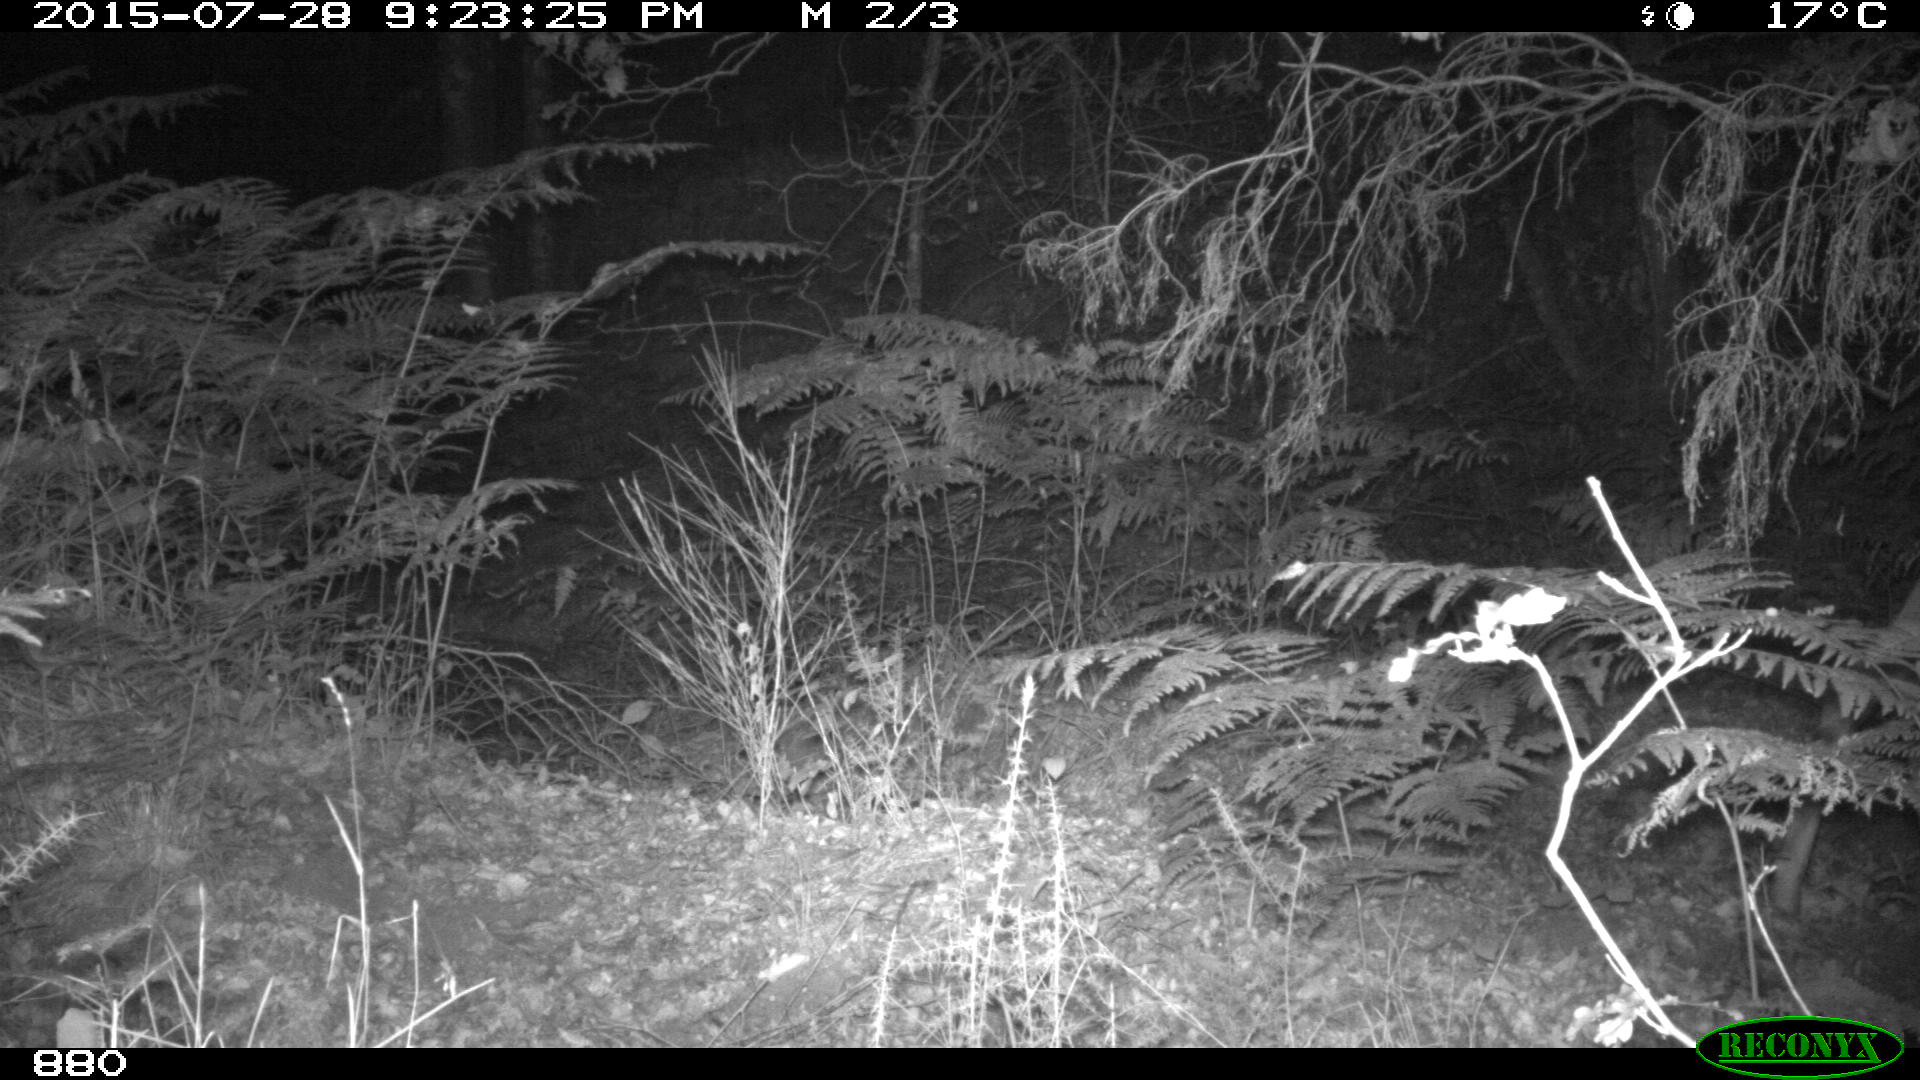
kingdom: Animalia
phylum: Chordata
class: Mammalia
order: Artiodactyla
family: Cervidae
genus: Capreolus
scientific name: Capreolus capreolus
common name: Western roe deer
